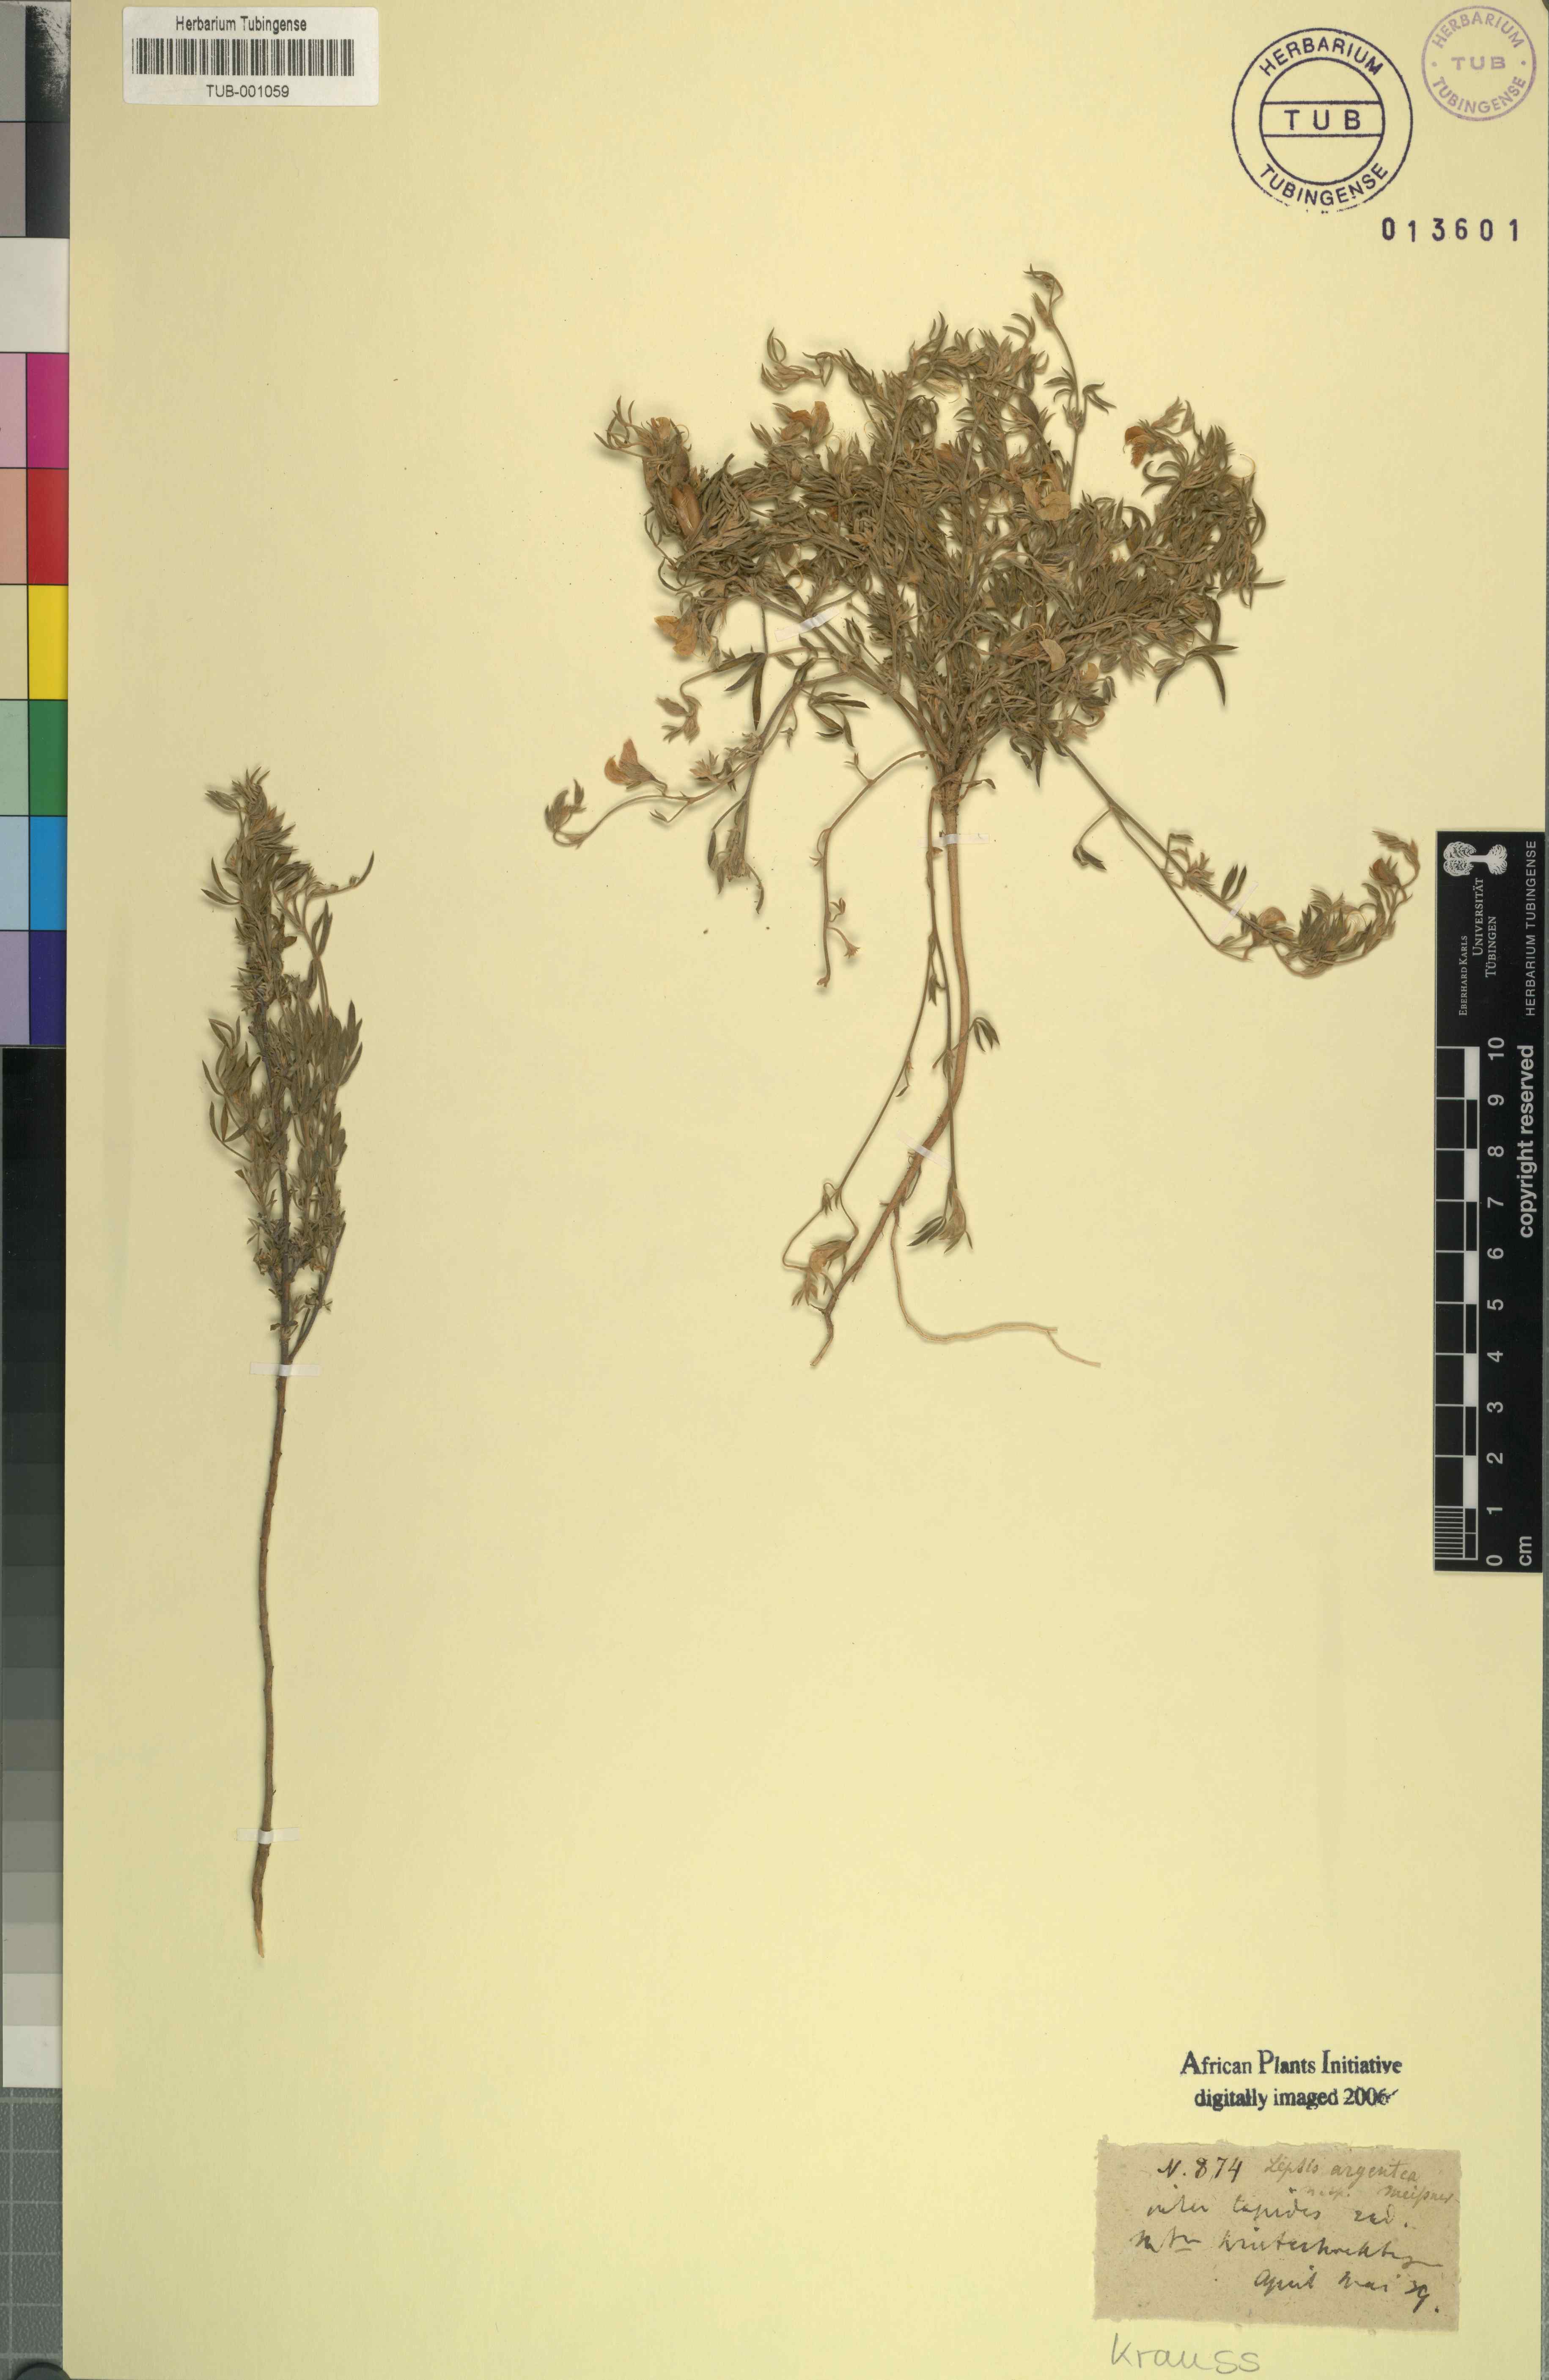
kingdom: Plantae
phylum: Tracheophyta
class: Magnoliopsida
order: Fabales
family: Fabaceae
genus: Lotononis
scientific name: Lotononis argentea
